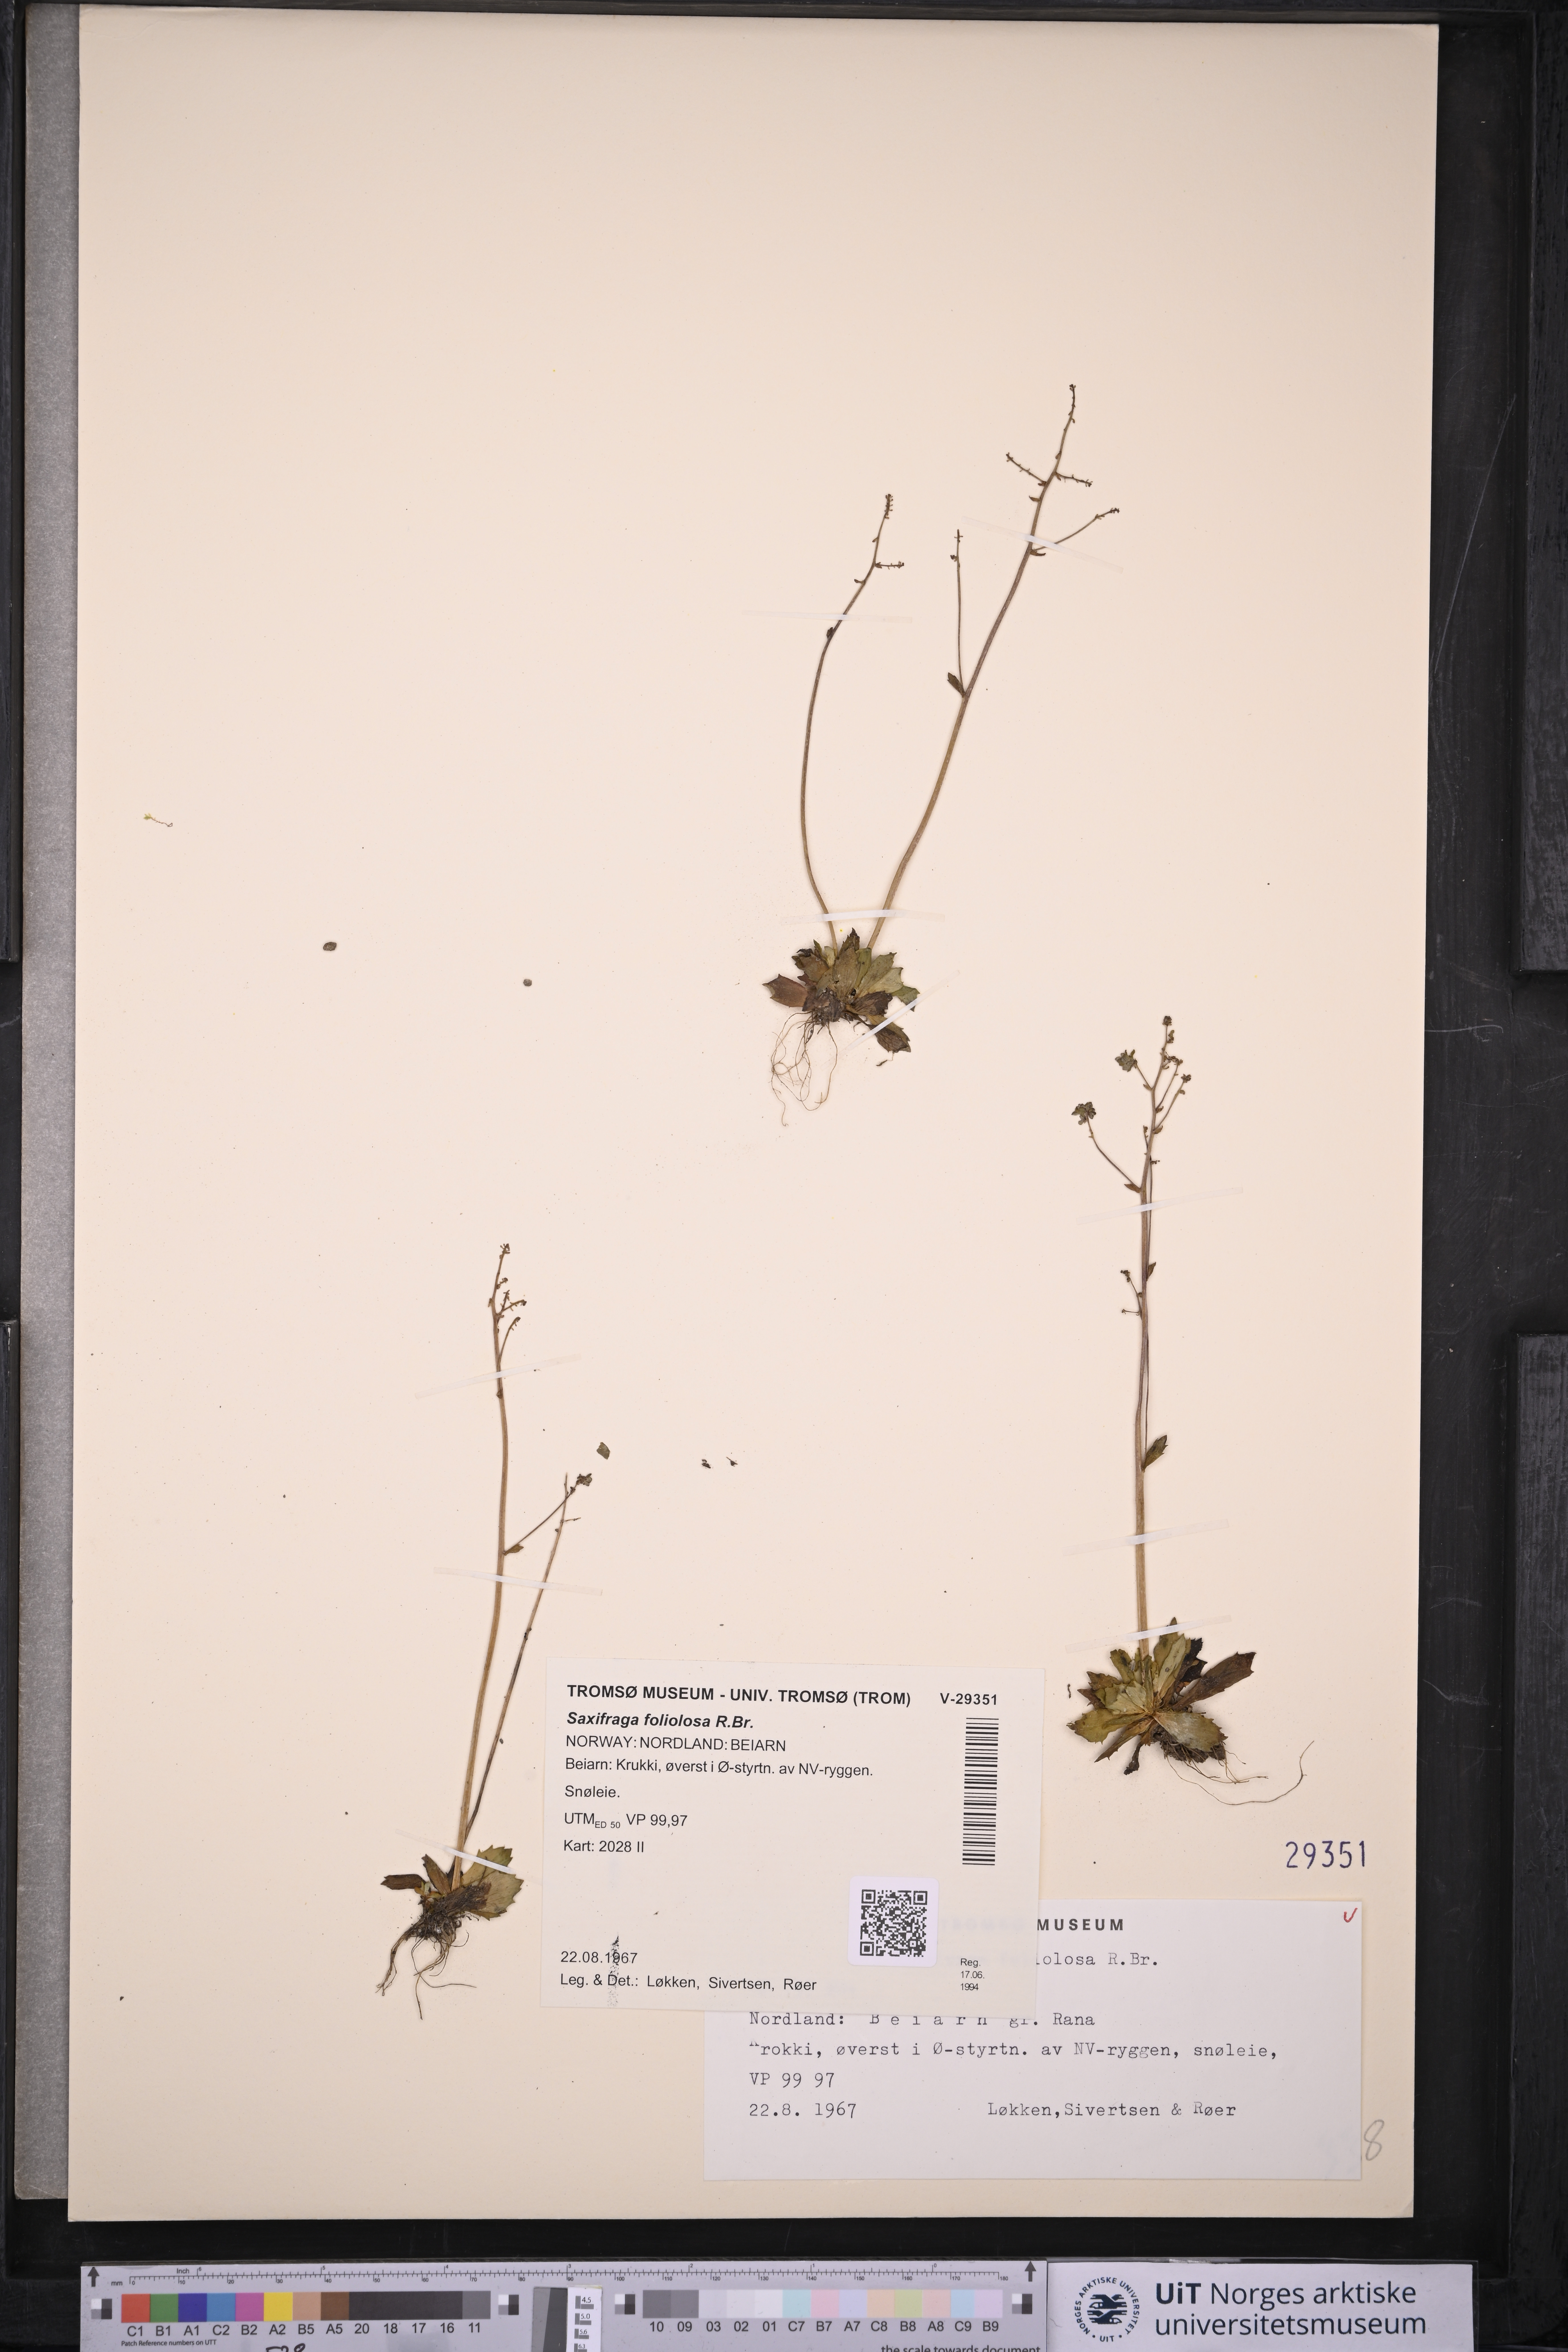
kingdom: Plantae
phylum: Tracheophyta
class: Magnoliopsida
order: Saxifragales
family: Saxifragaceae
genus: Micranthes
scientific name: Micranthes foliolosa
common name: Leafystem saxifrage
